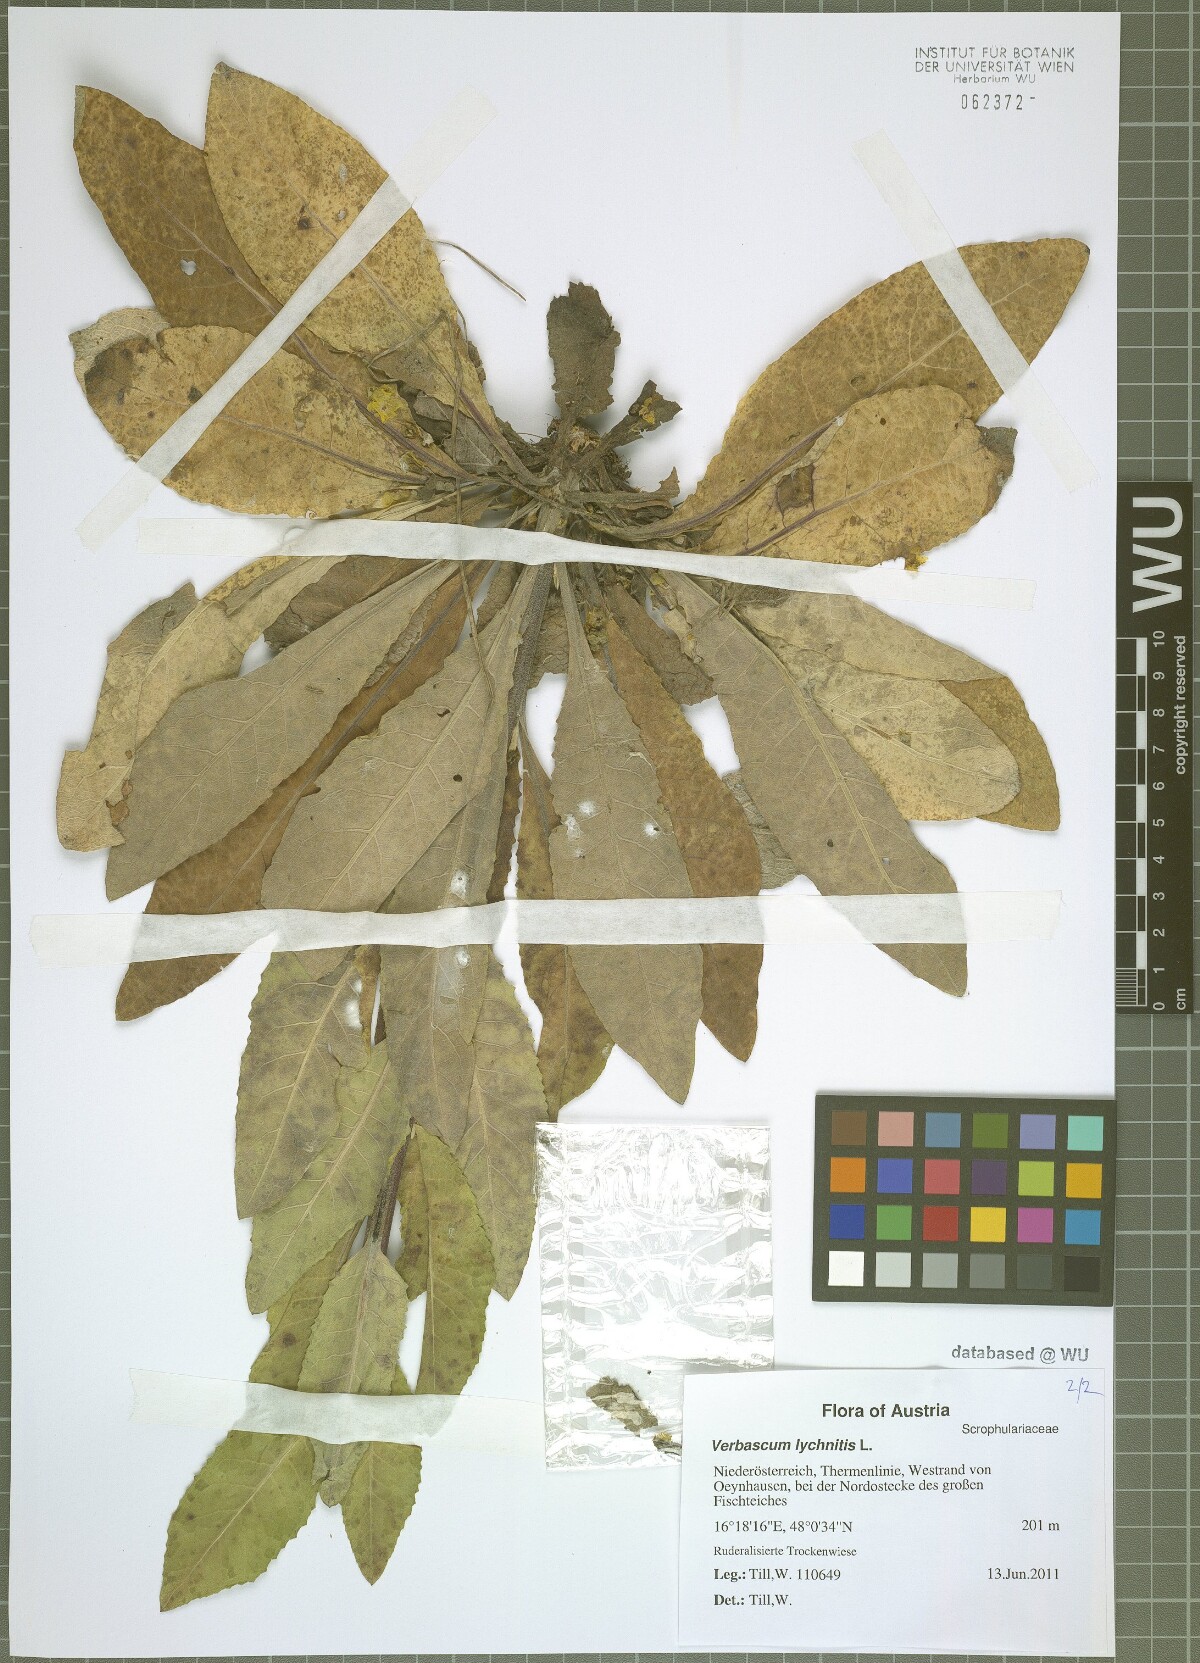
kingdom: Plantae
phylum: Tracheophyta
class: Magnoliopsida
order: Lamiales
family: Scrophulariaceae
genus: Verbascum
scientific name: Verbascum lychnitis
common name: White mullein
